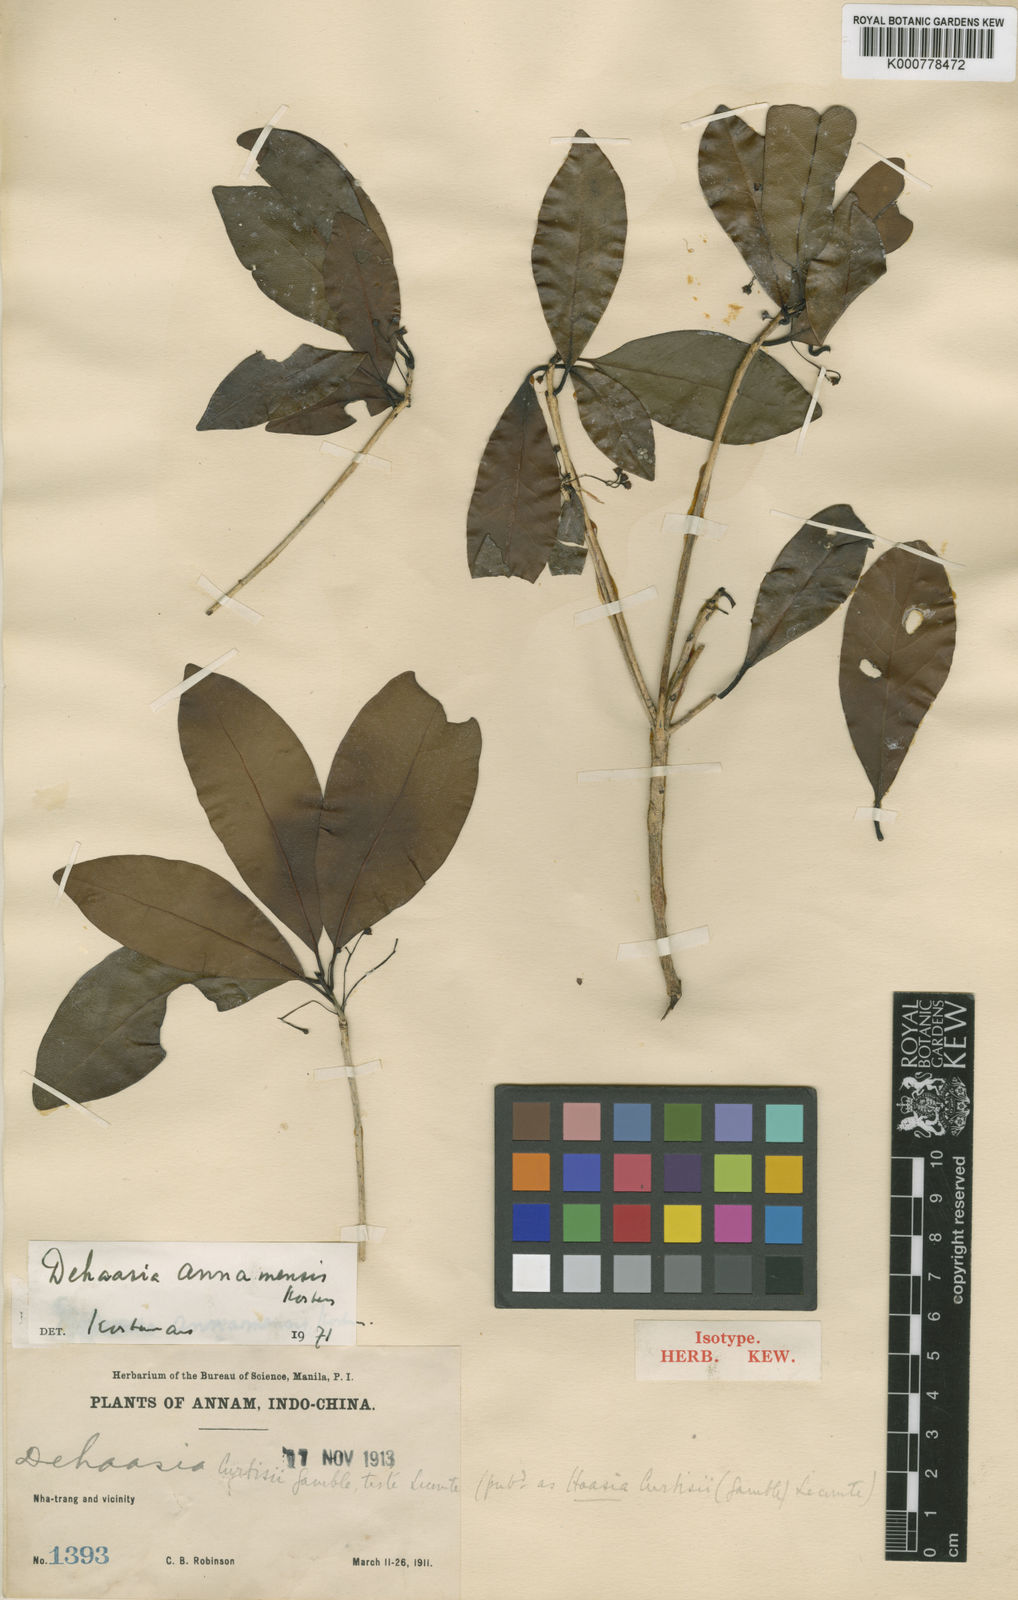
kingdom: Plantae
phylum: Tracheophyta
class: Magnoliopsida
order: Laurales
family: Lauraceae
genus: Dehaasia
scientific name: Dehaasia annamensis
